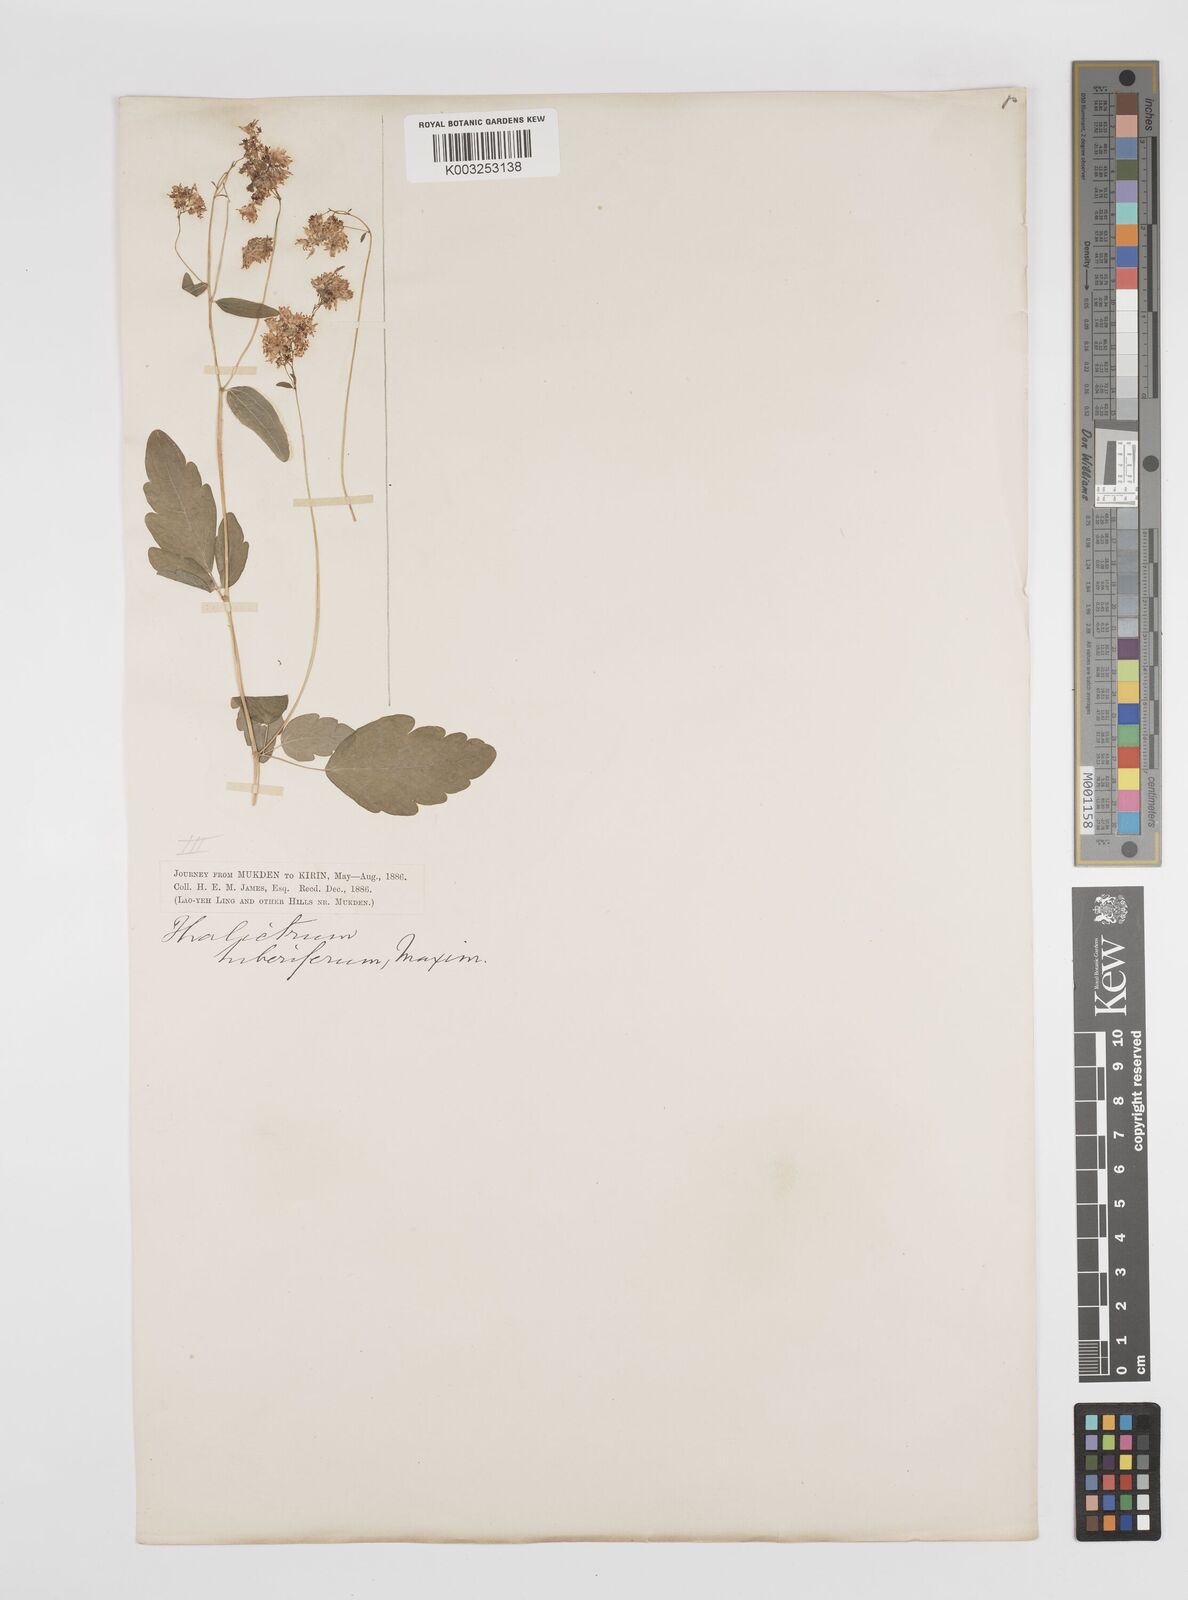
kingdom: Plantae
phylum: Tracheophyta
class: Magnoliopsida
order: Ranunculales
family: Ranunculaceae
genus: Thalictrum
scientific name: Thalictrum tuberiferum
